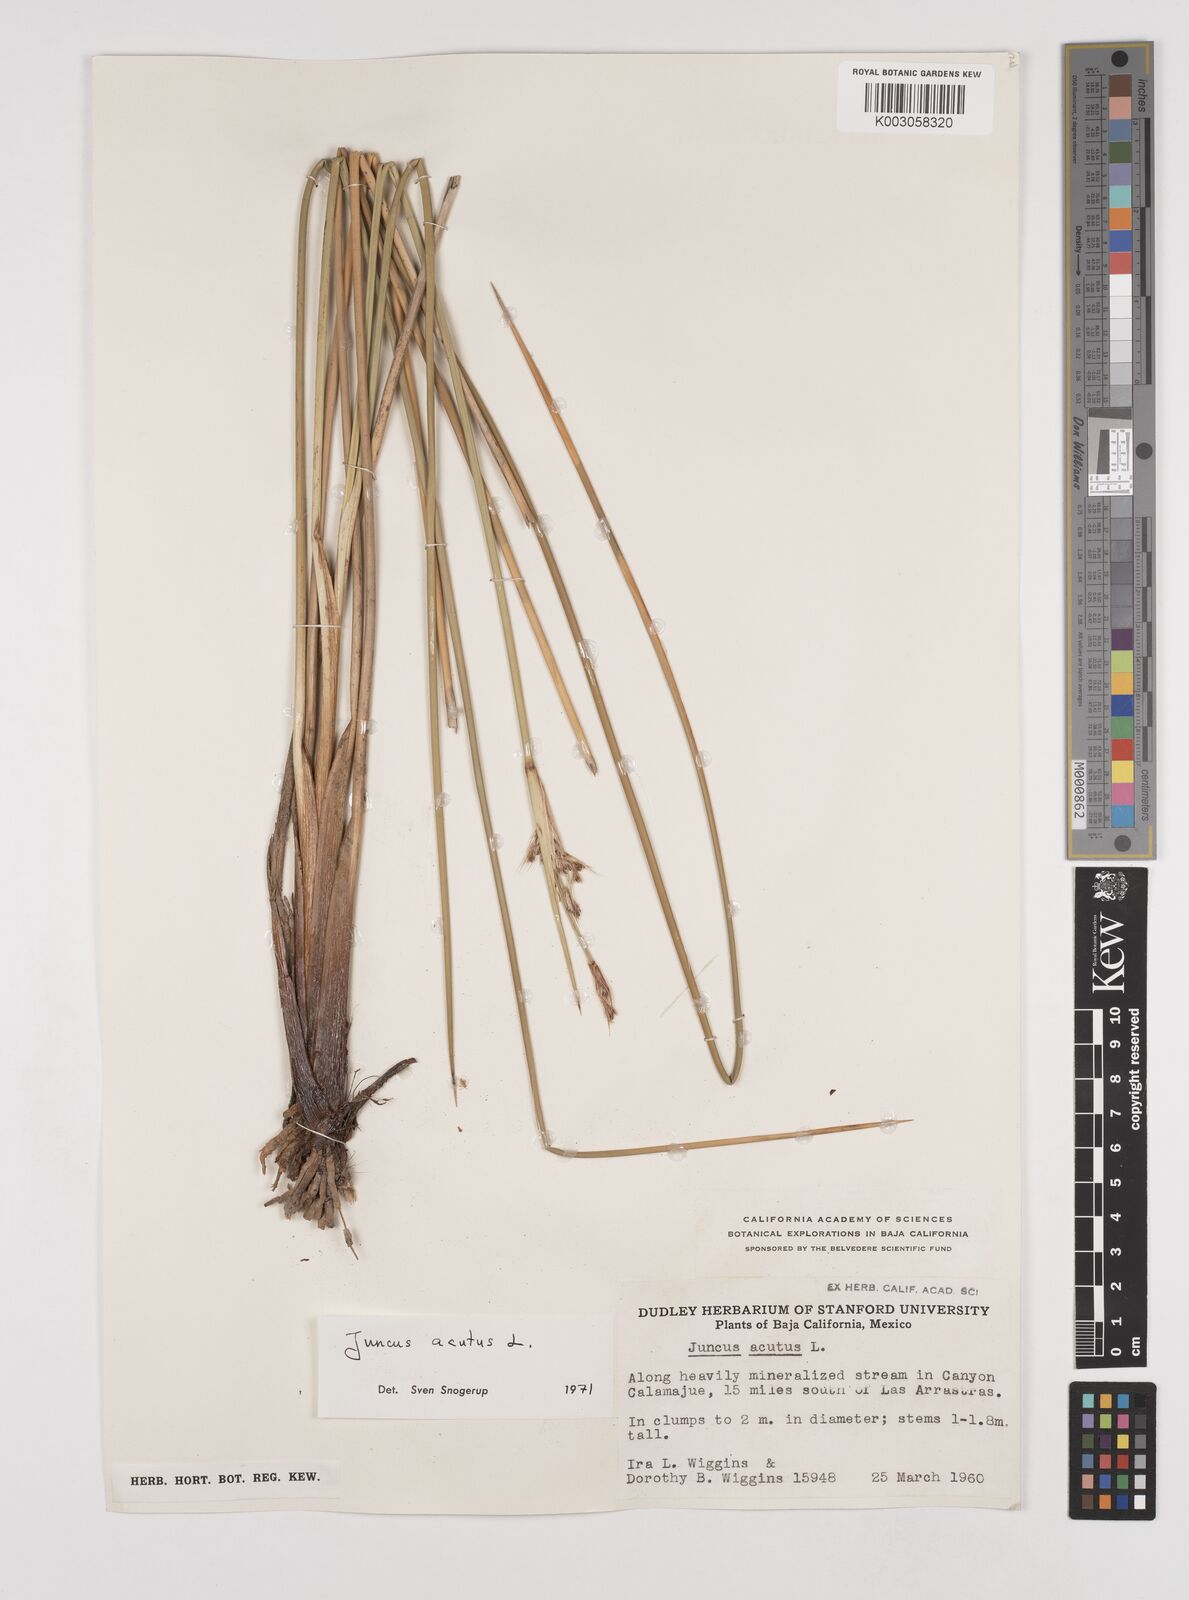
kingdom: Plantae
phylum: Tracheophyta
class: Liliopsida
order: Poales
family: Juncaceae
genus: Juncus
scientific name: Juncus acutus
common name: Sharp rush
